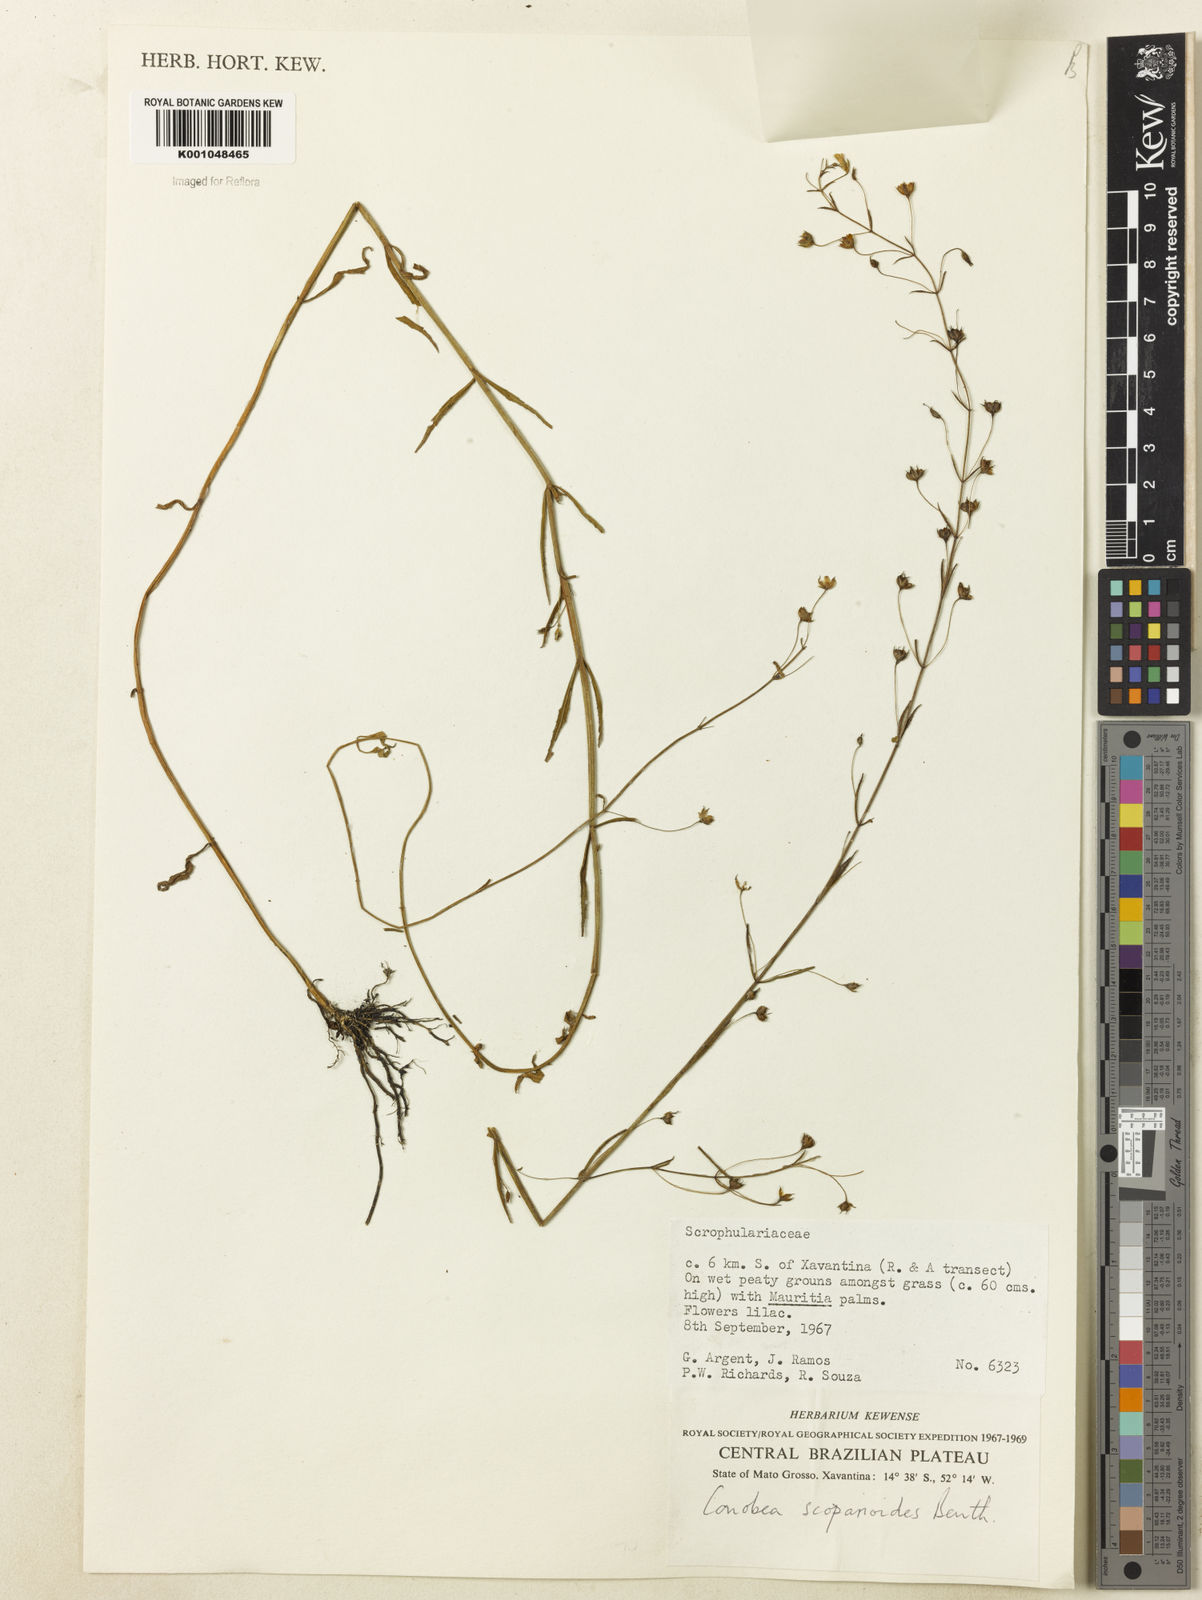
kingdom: Plantae
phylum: Tracheophyta
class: Magnoliopsida
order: Lamiales
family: Plantaginaceae
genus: Conobea
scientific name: Conobea scoparioides
